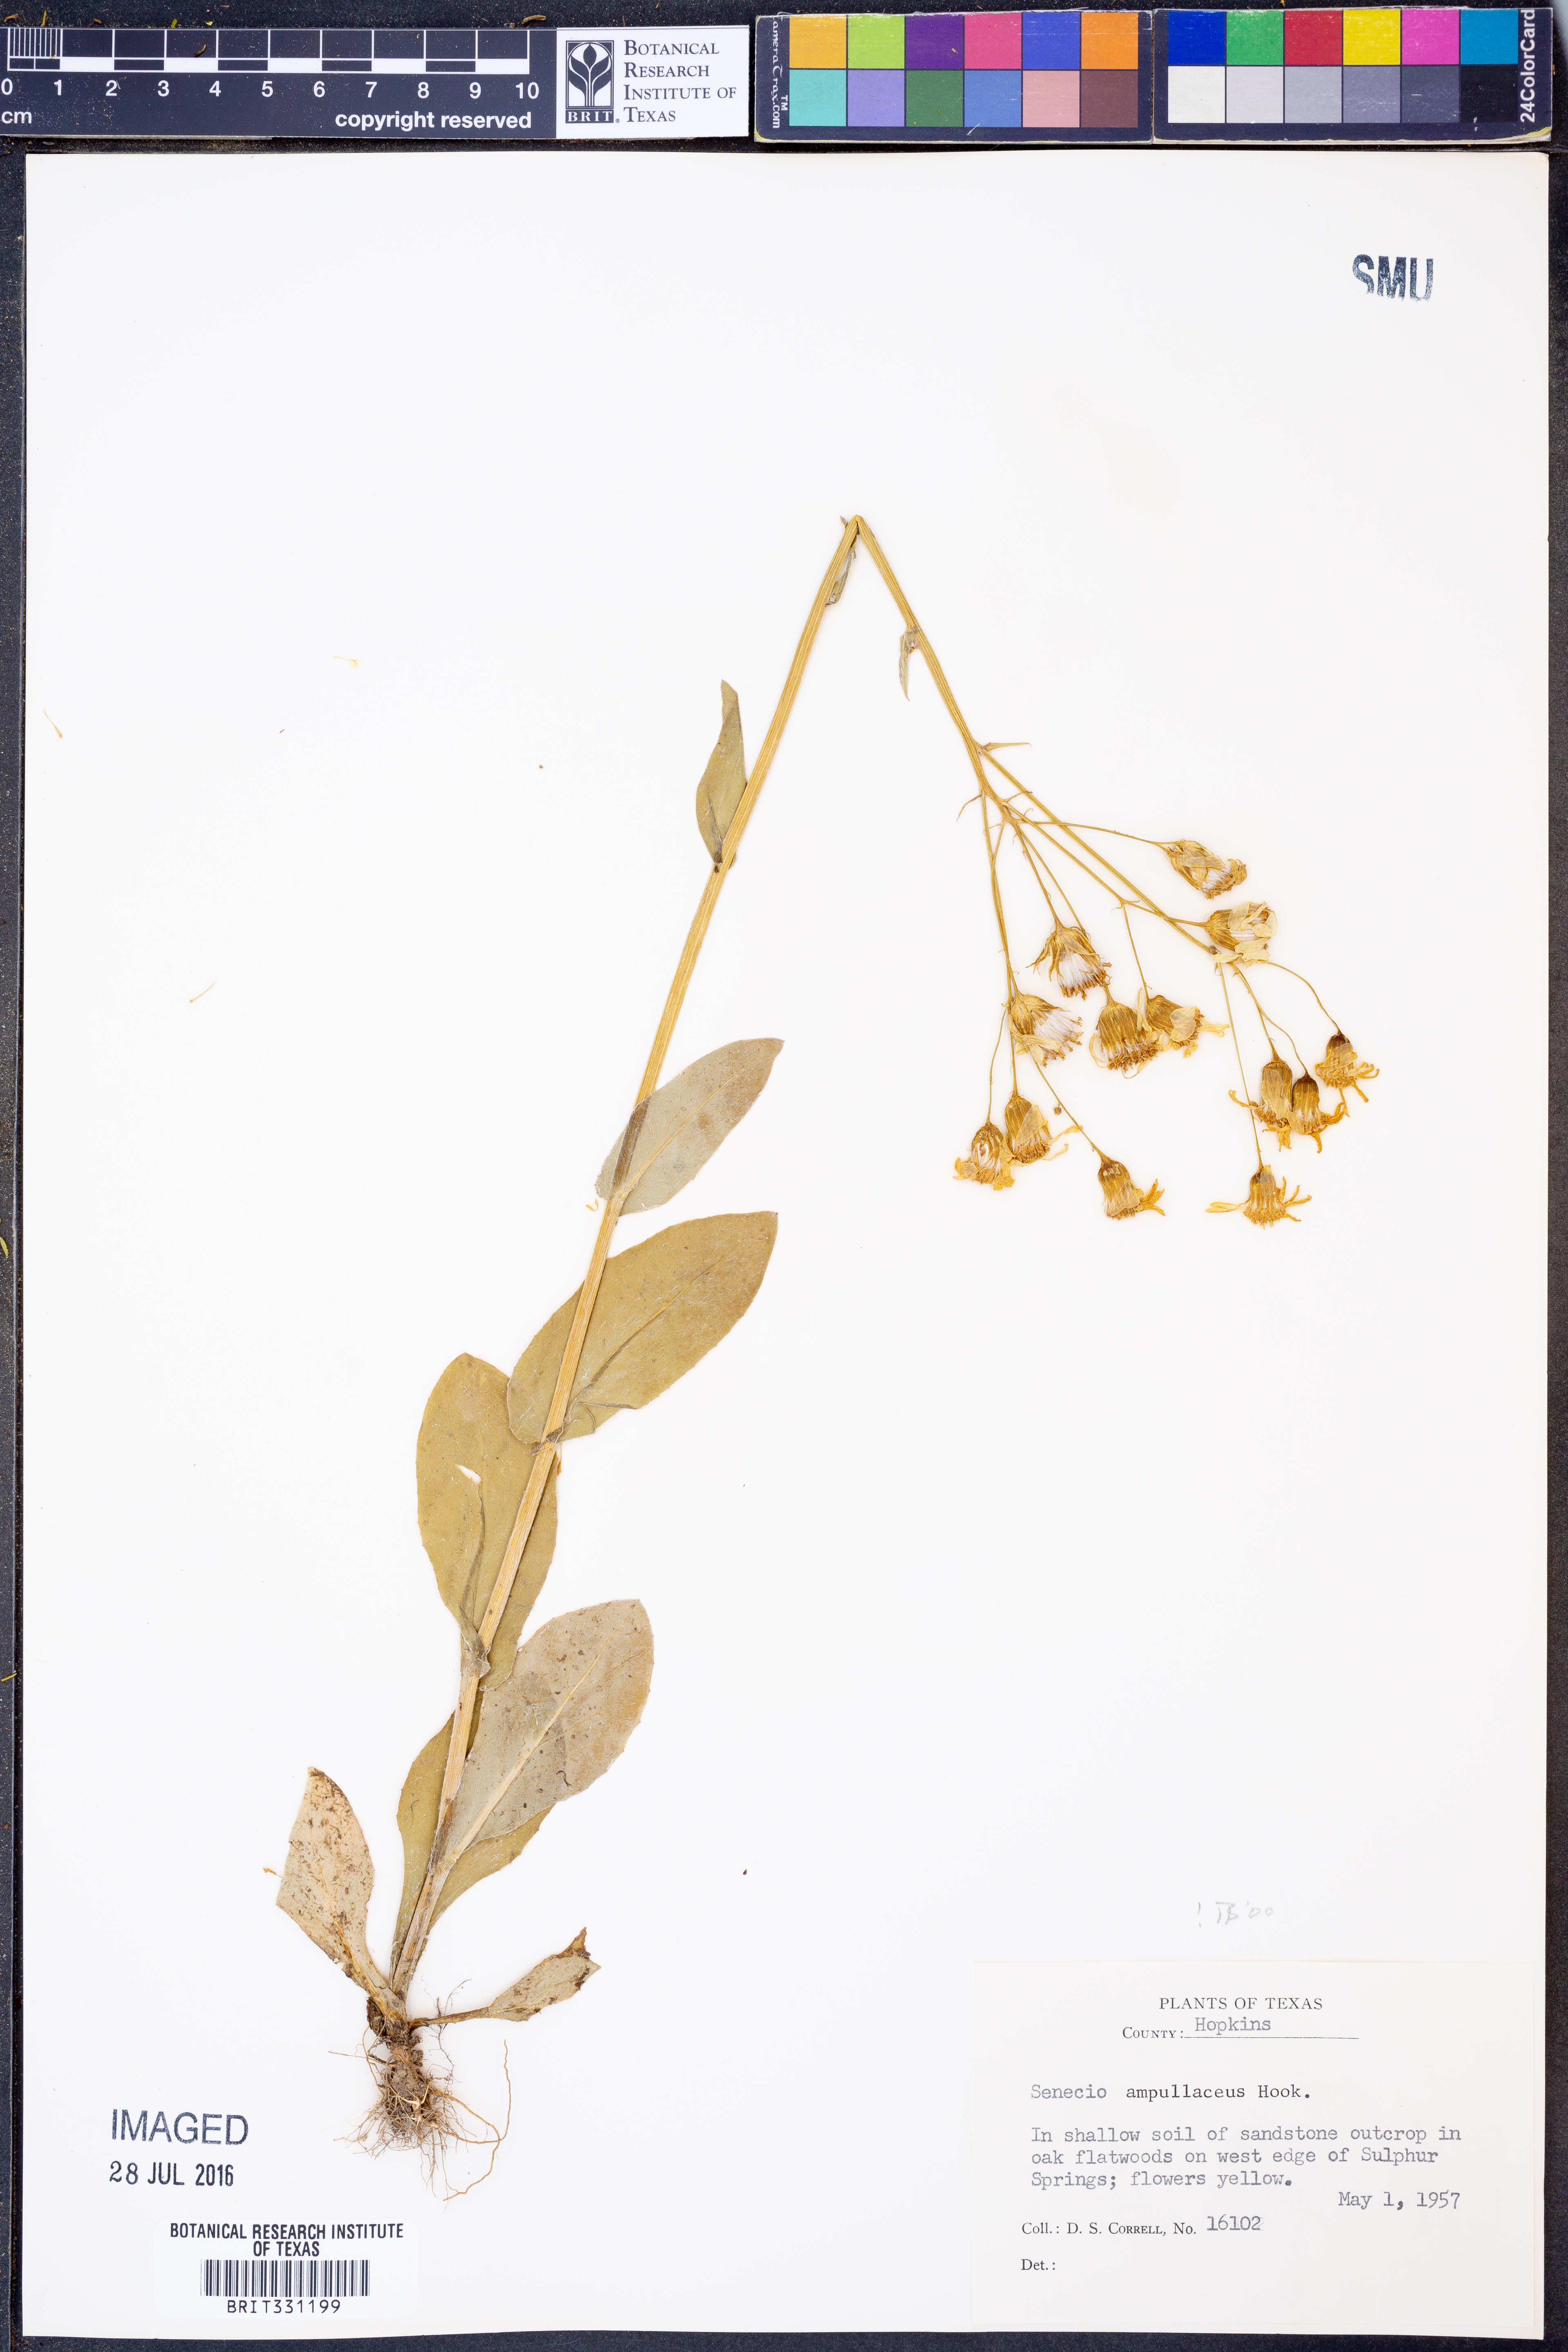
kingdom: Plantae
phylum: Tracheophyta
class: Magnoliopsida
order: Asterales
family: Asteraceae
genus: Senecio
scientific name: Senecio ampullaceus
